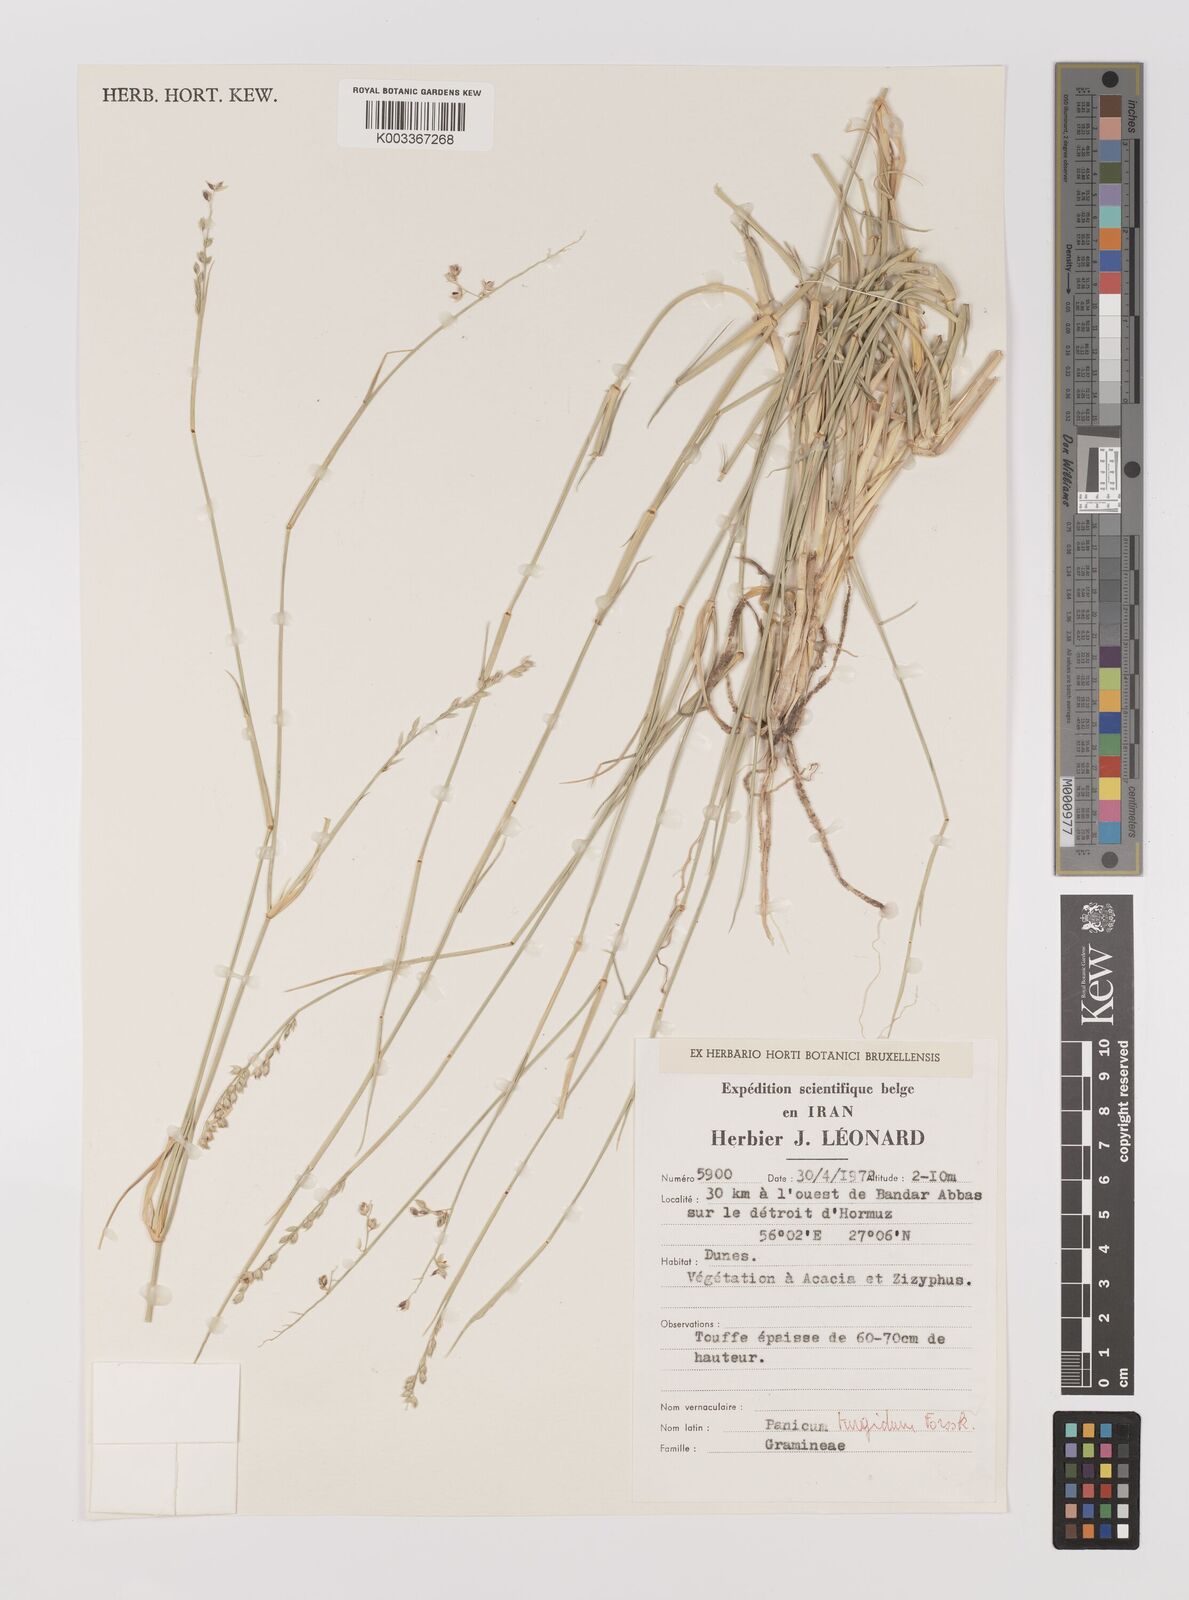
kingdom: Plantae
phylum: Tracheophyta
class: Liliopsida
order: Poales
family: Poaceae
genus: Panicum
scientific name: Panicum turgidum
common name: Desert grass
